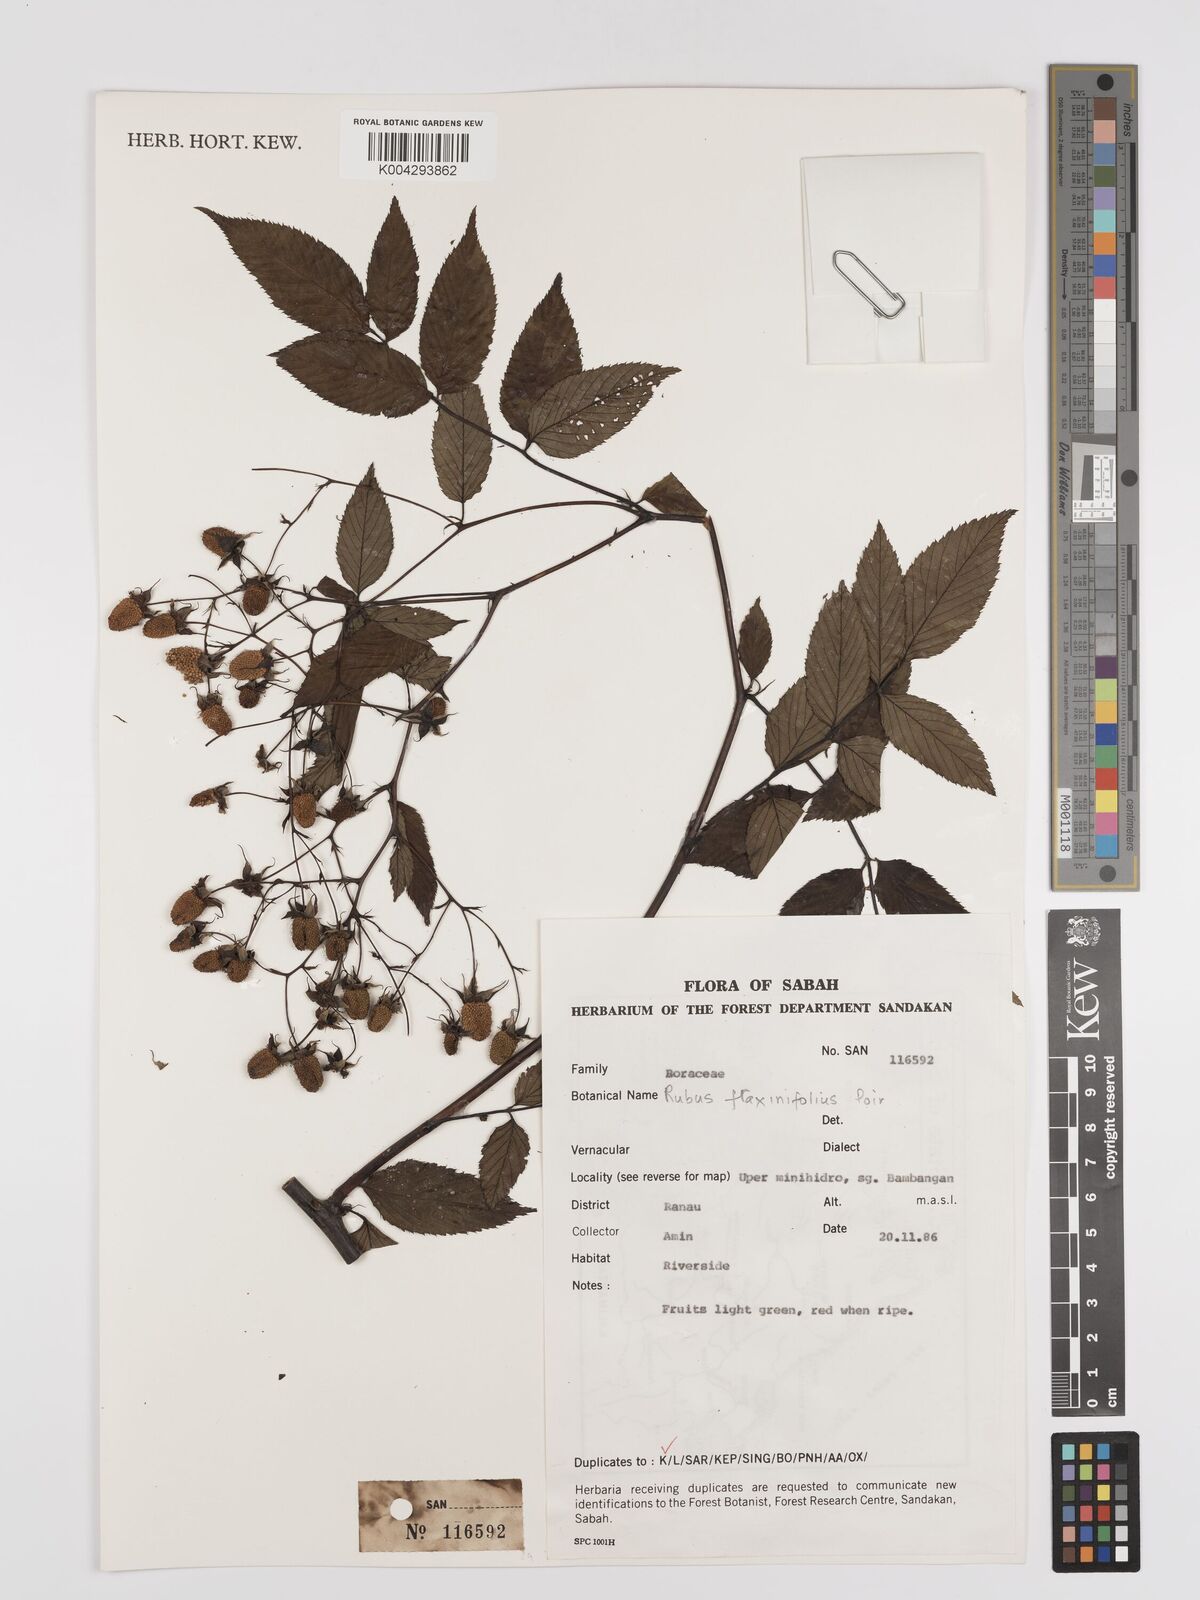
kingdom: Plantae
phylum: Tracheophyta
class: Magnoliopsida
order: Rosales
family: Rosaceae
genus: Rubus
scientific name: Rubus fraxinifolius
